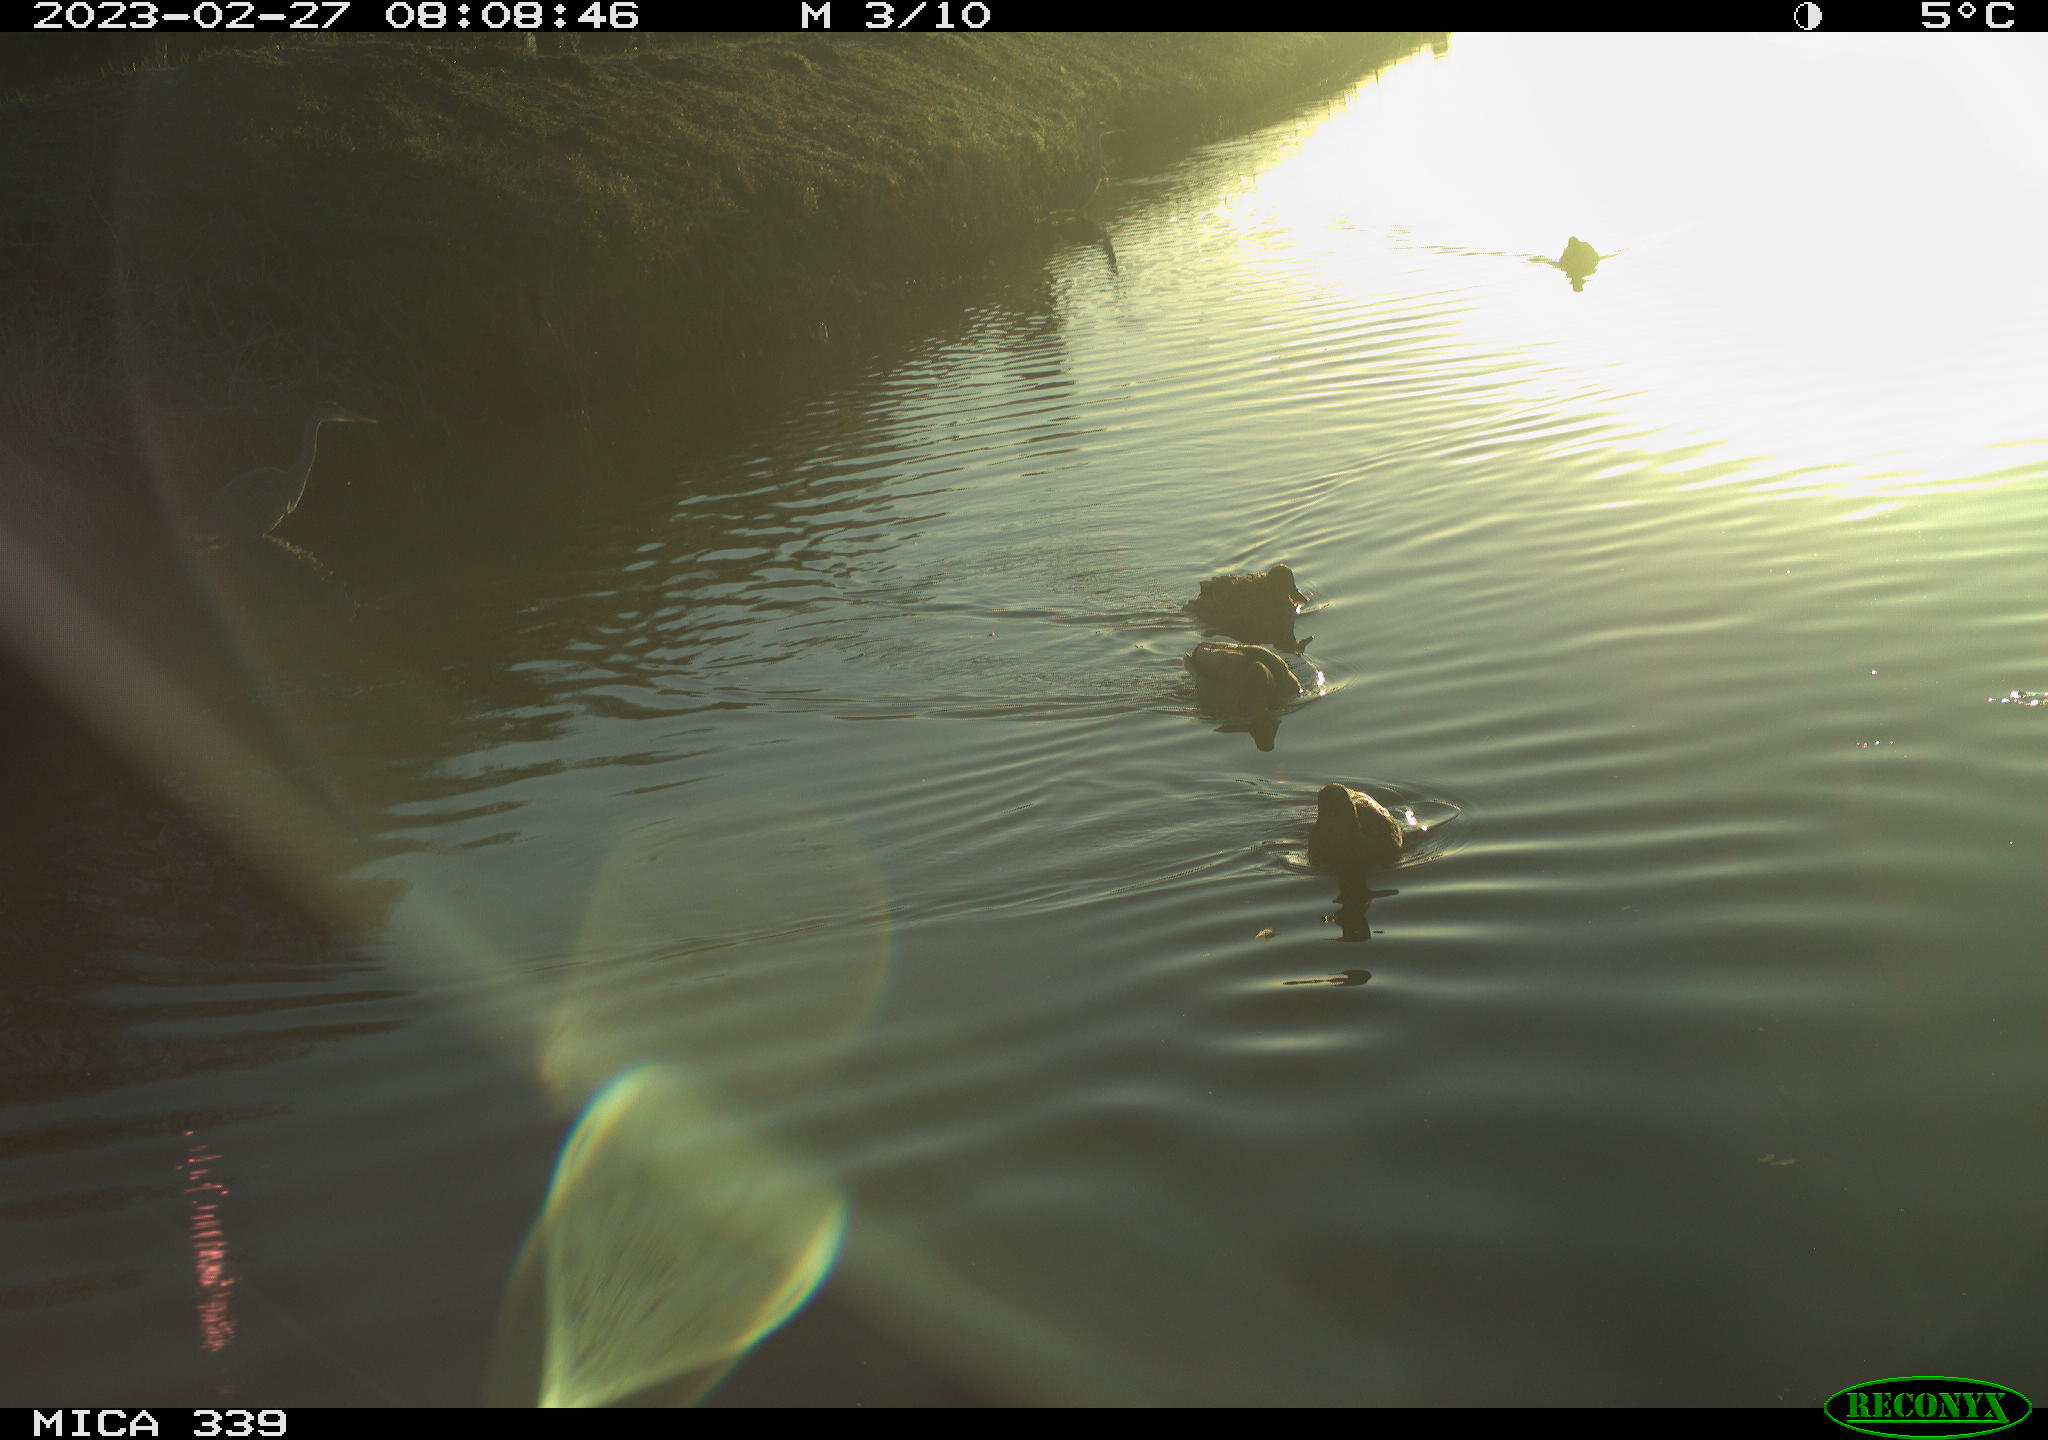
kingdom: Animalia
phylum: Chordata
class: Aves
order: Anseriformes
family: Anatidae
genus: Anas
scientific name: Anas
